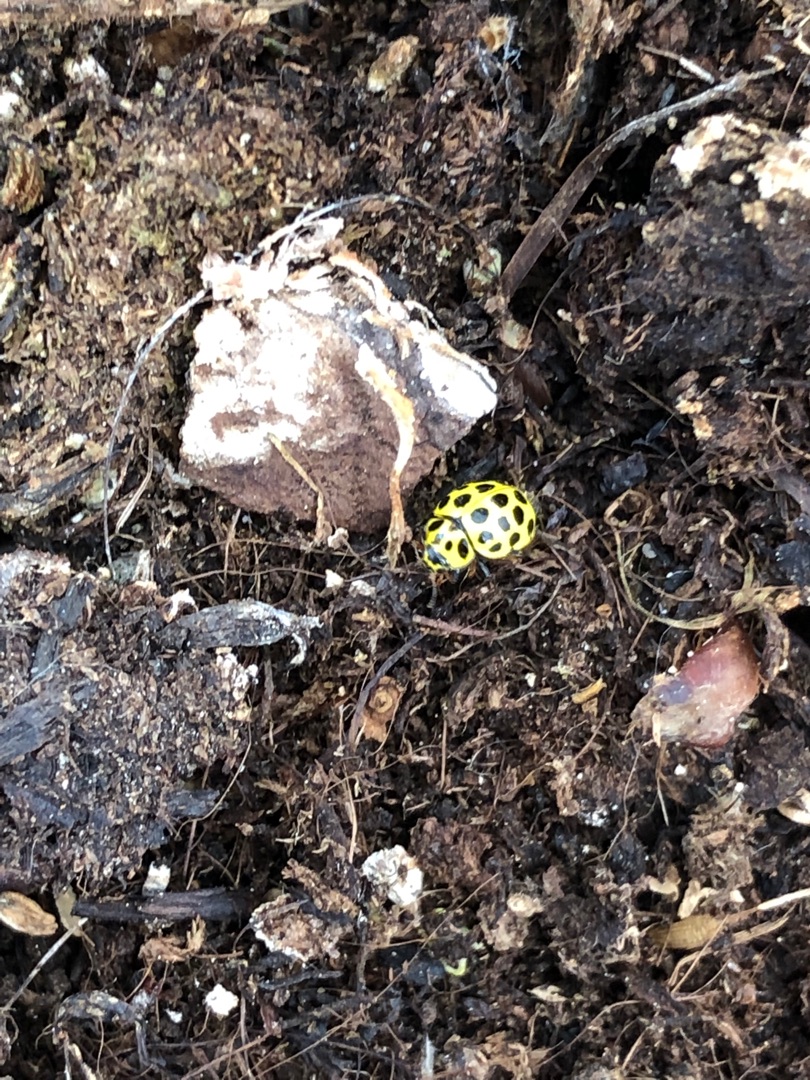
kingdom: Animalia
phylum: Arthropoda
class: Insecta
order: Coleoptera
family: Coccinellidae
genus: Psyllobora
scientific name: Psyllobora vigintiduopunctata
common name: Toogtyveplettet mariehøne
